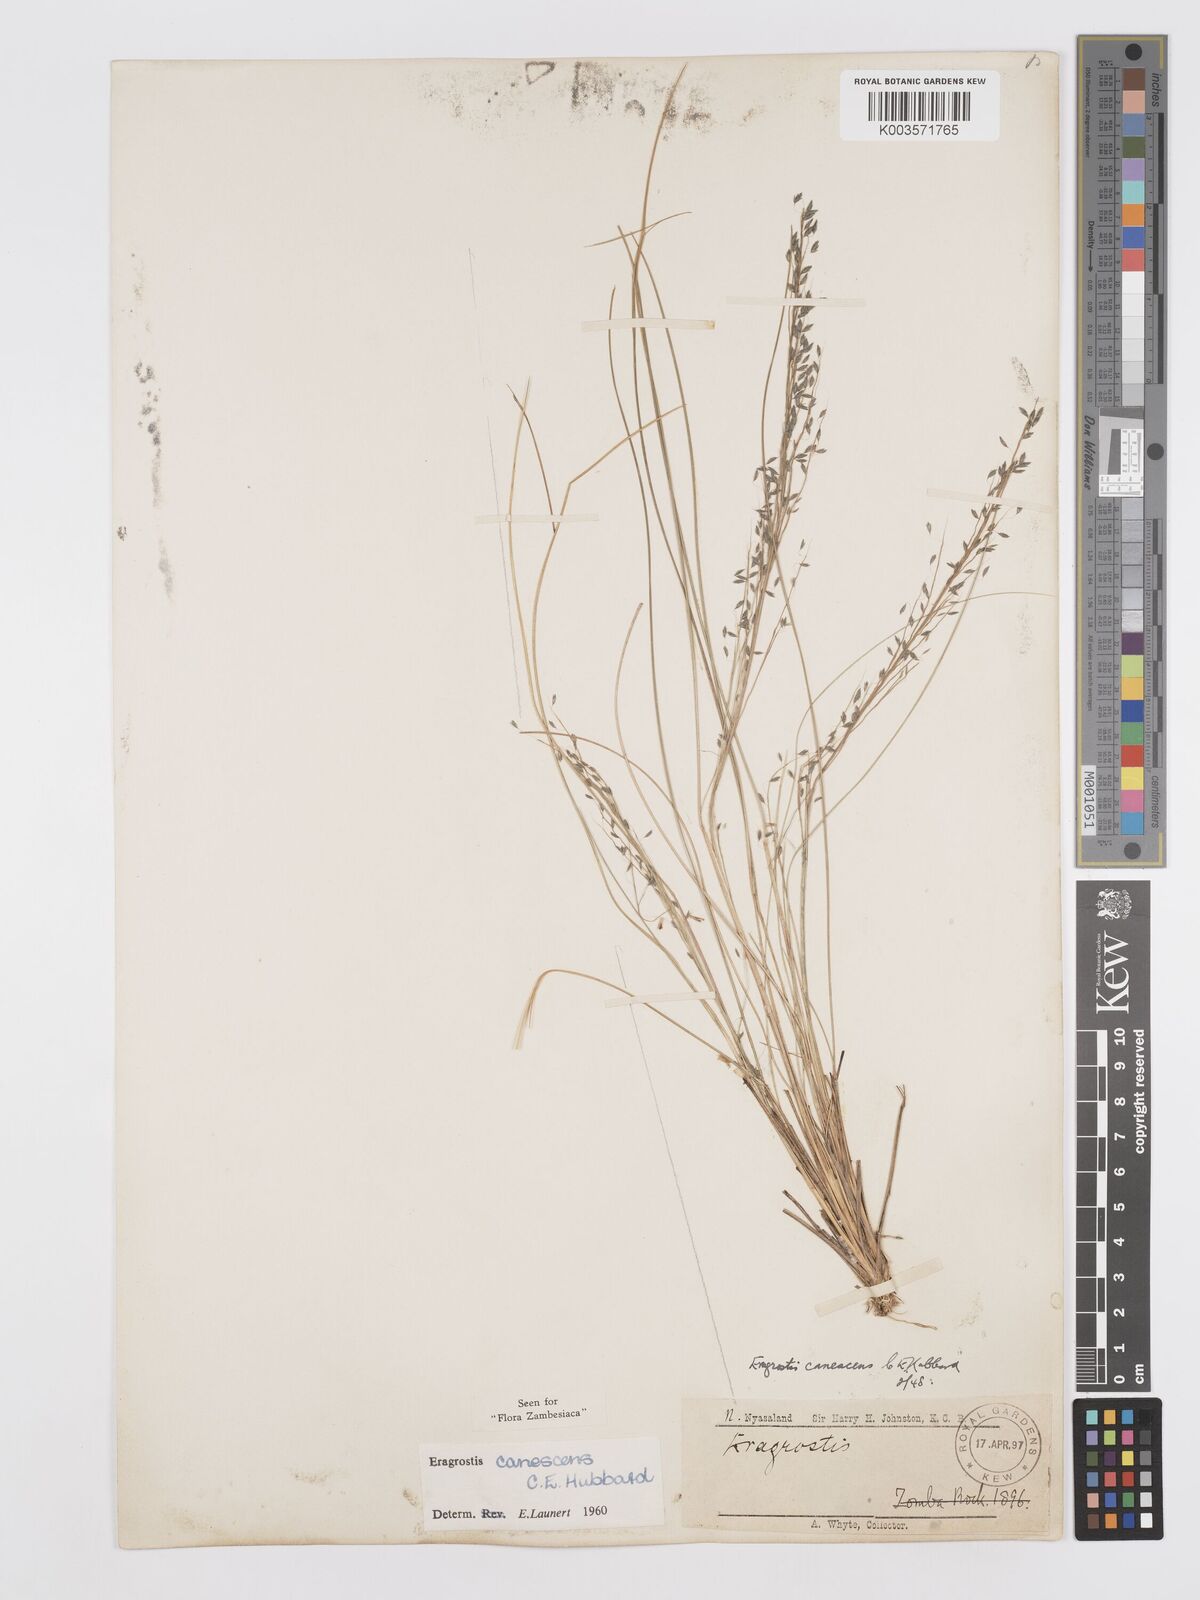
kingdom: Plantae
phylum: Tracheophyta
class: Liliopsida
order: Poales
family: Poaceae
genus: Eragrostis
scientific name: Eragrostis canescens
